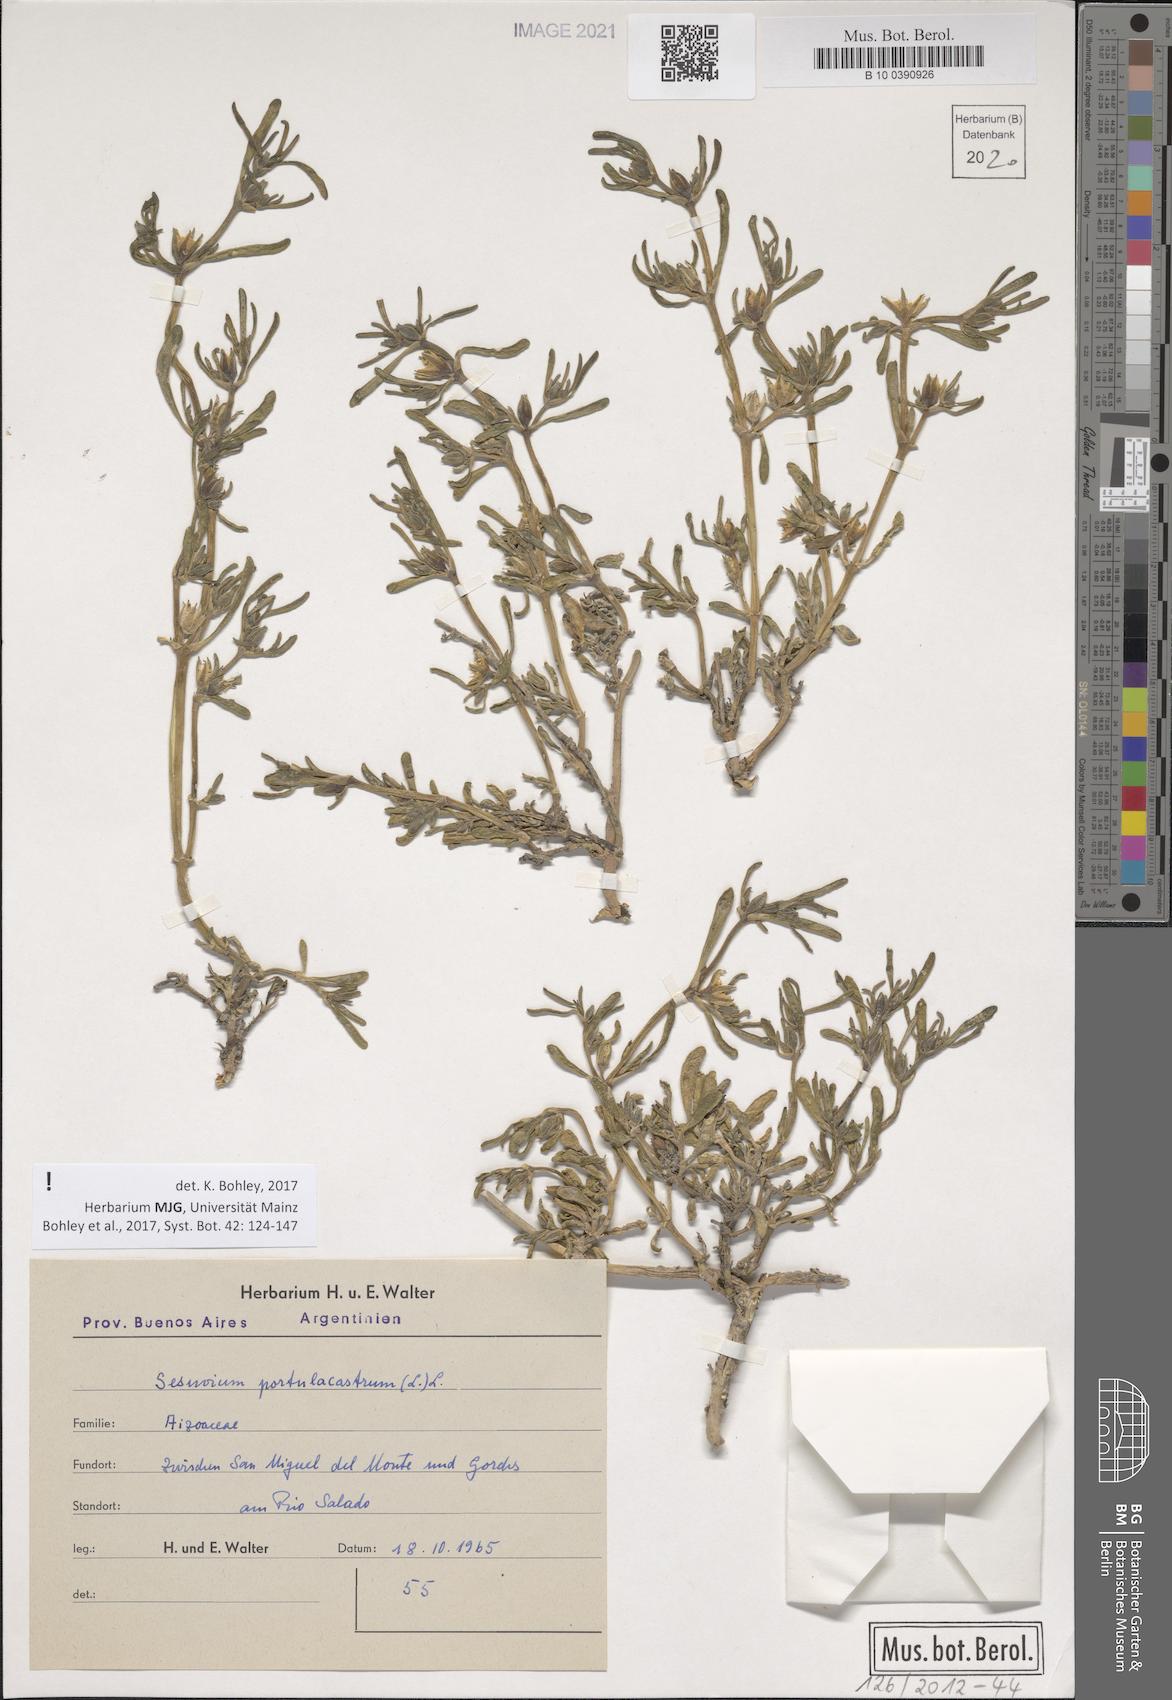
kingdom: Plantae
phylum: Tracheophyta
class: Magnoliopsida
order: Caryophyllales
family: Aizoaceae
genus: Sesuvium
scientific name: Sesuvium portulacastrum
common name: Sea-purslane
